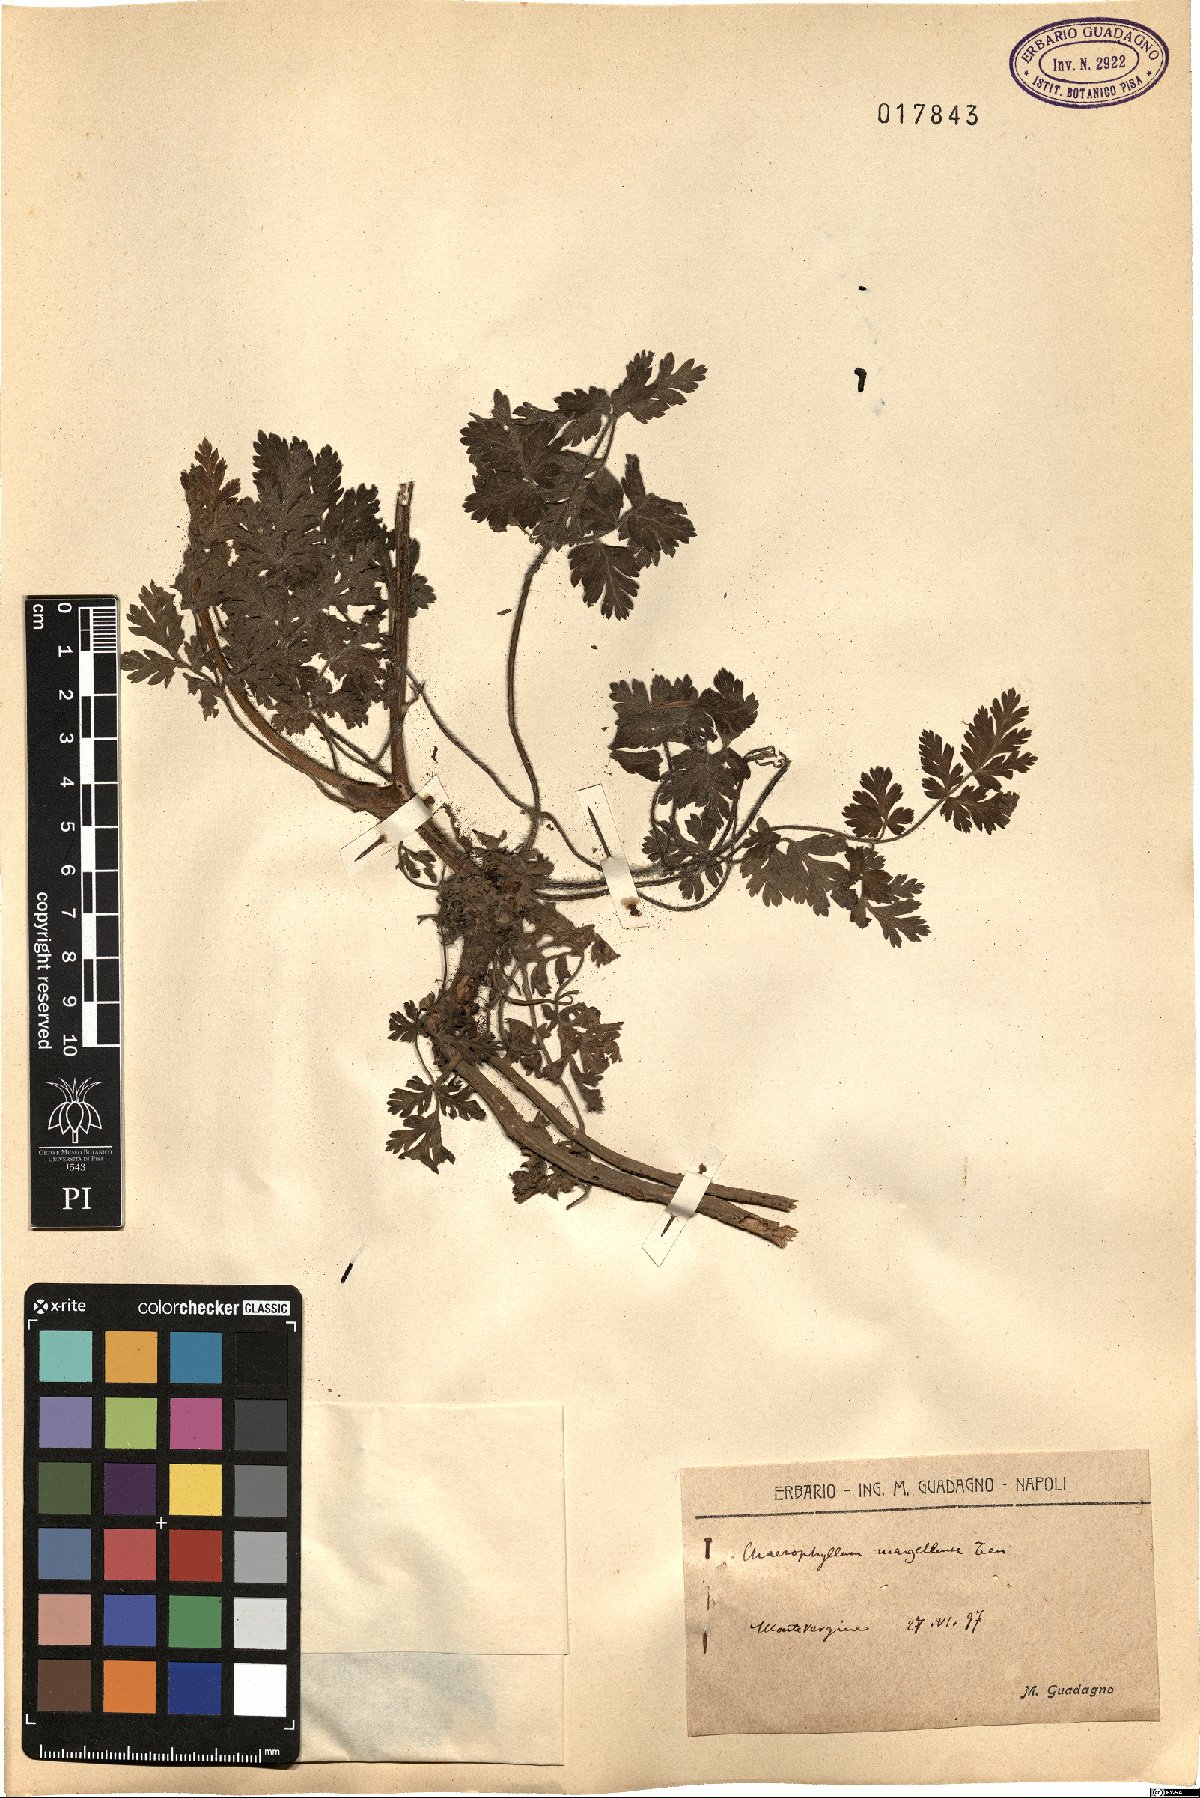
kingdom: Plantae
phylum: Tracheophyta
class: Magnoliopsida
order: Apiales
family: Apiaceae
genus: Chaerophyllum
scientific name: Chaerophyllum hirsutum
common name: Hairy chervil
